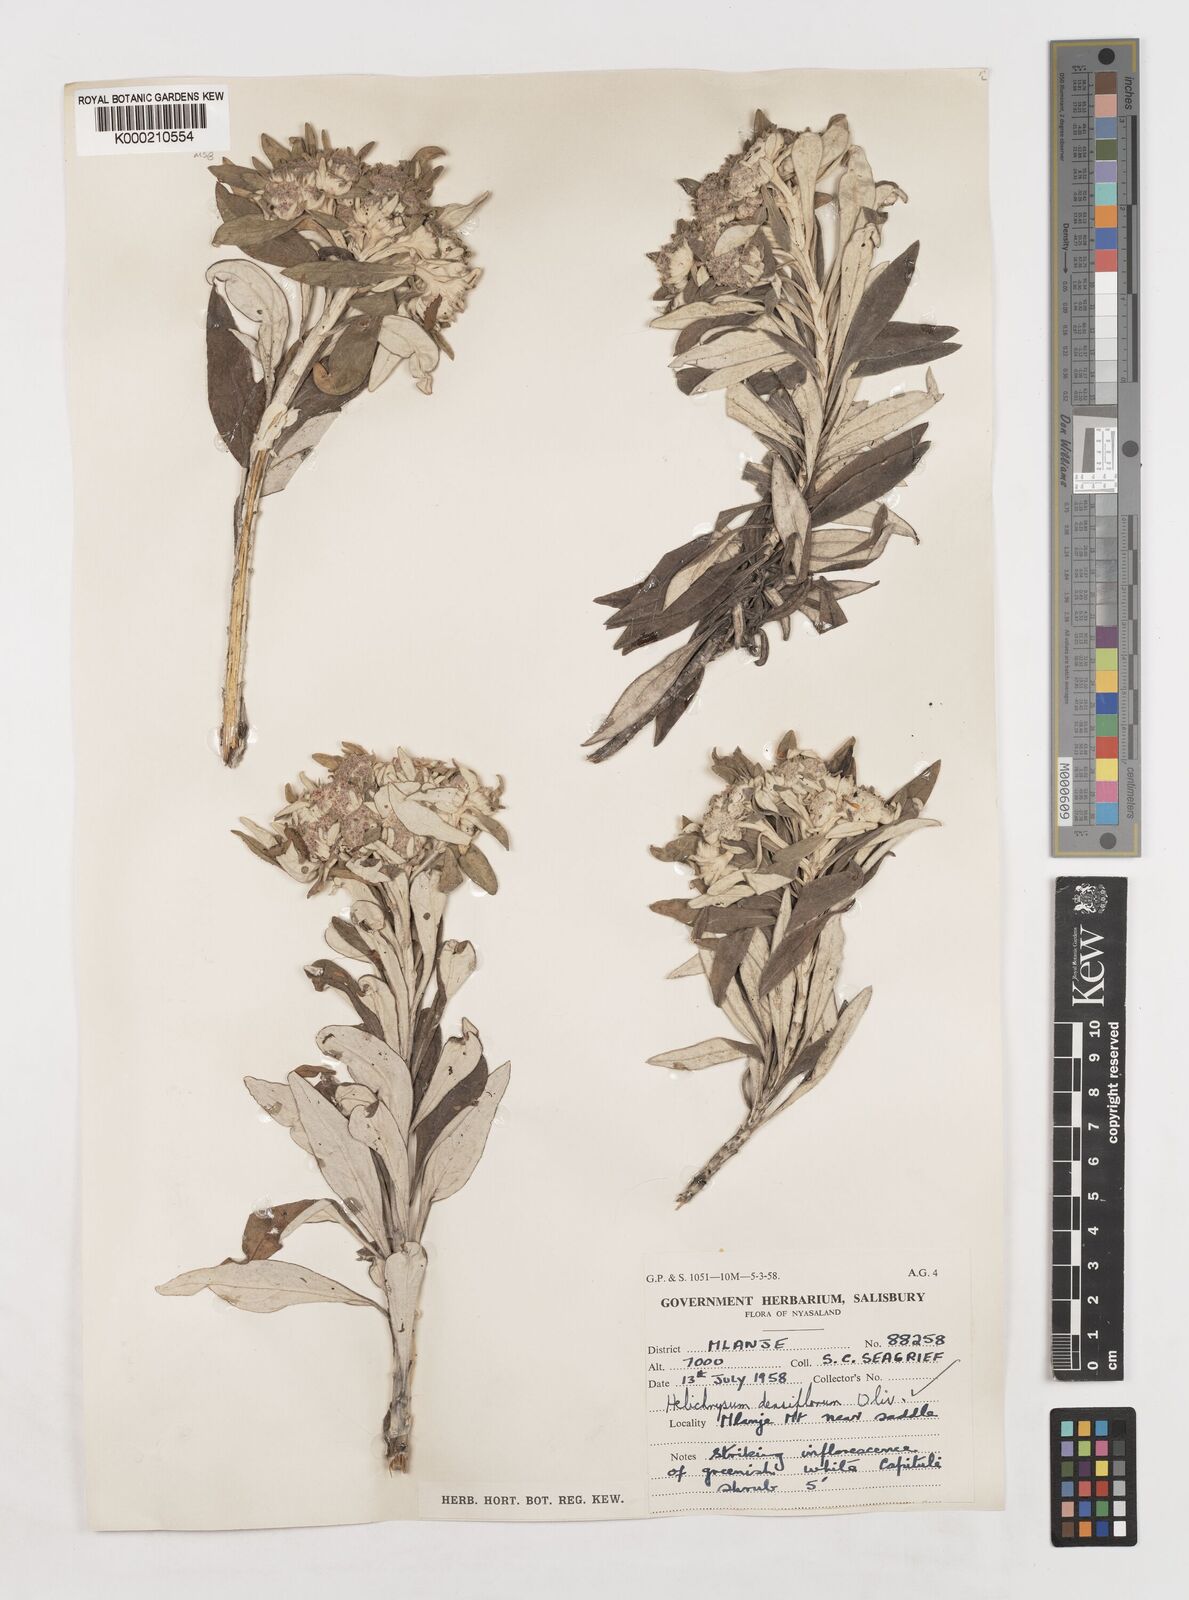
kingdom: Plantae
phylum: Tracheophyta
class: Magnoliopsida
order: Asterales
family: Asteraceae
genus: Helichrysum
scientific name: Helichrysum densiflorum
